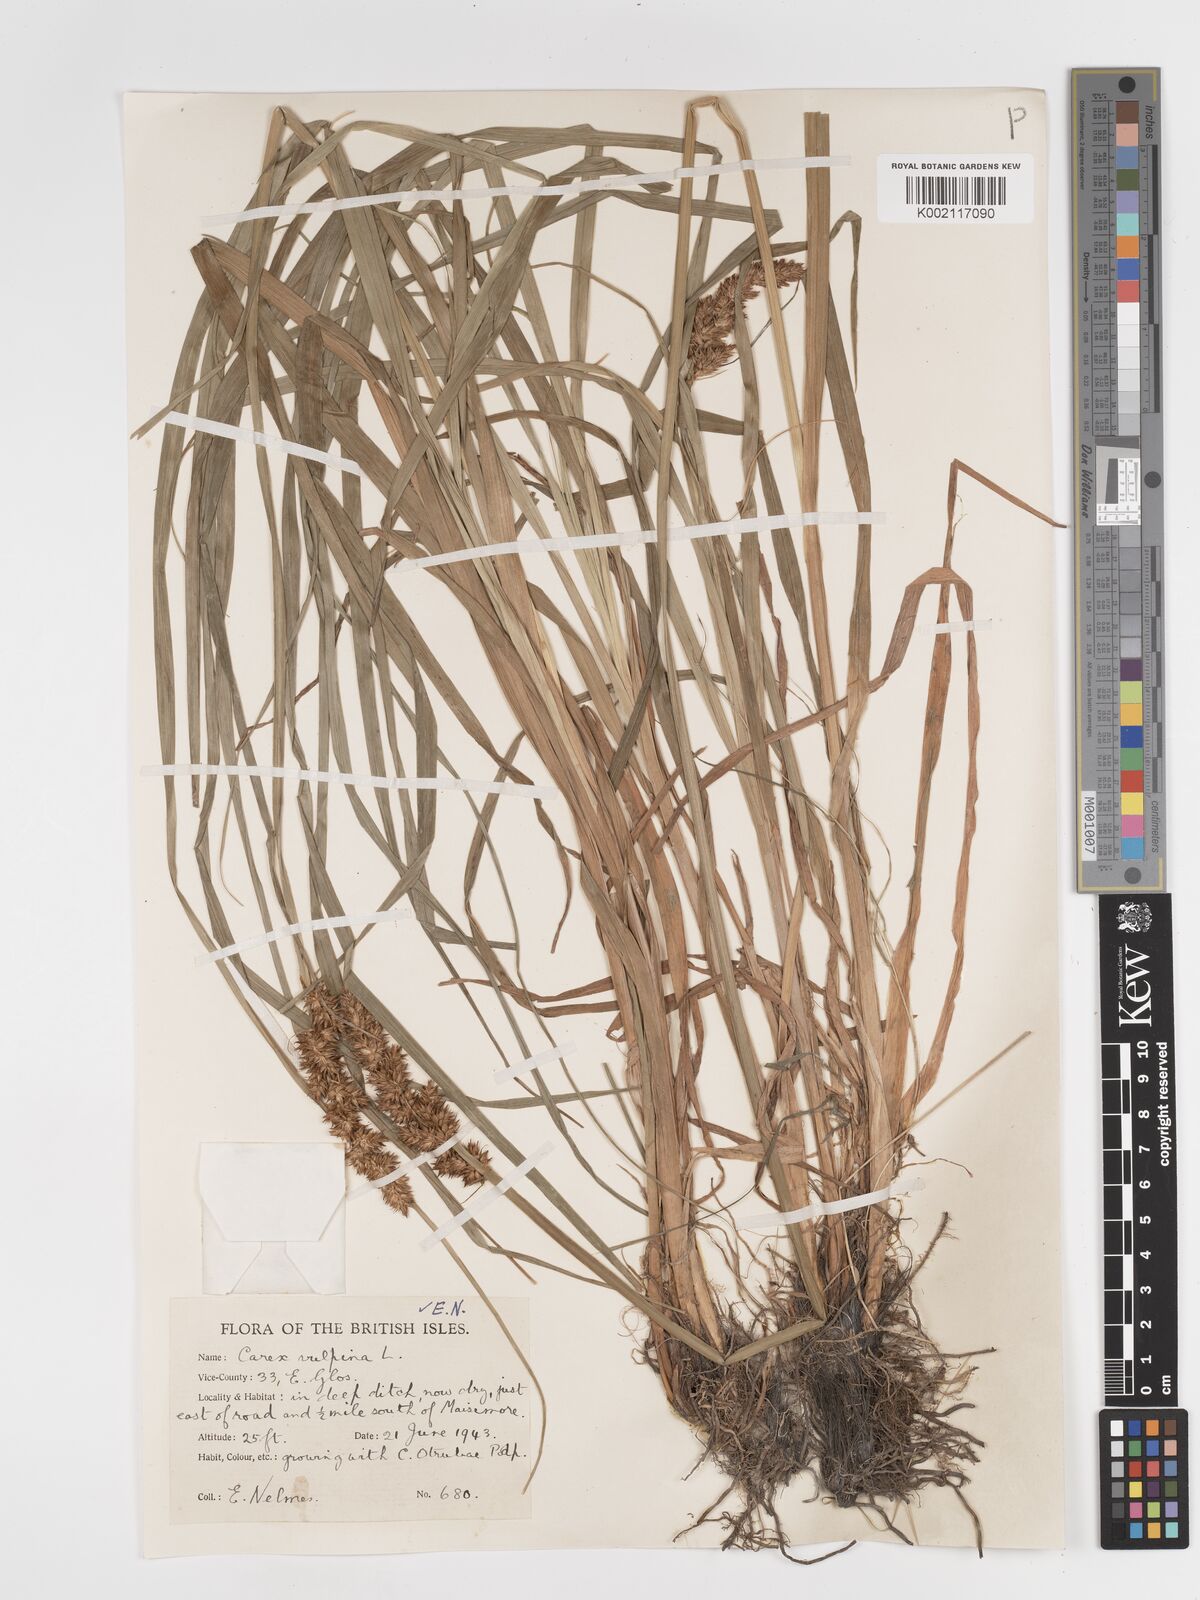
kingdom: Plantae
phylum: Tracheophyta
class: Liliopsida
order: Poales
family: Cyperaceae
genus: Carex
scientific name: Carex vulpina
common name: True fox-sedge
